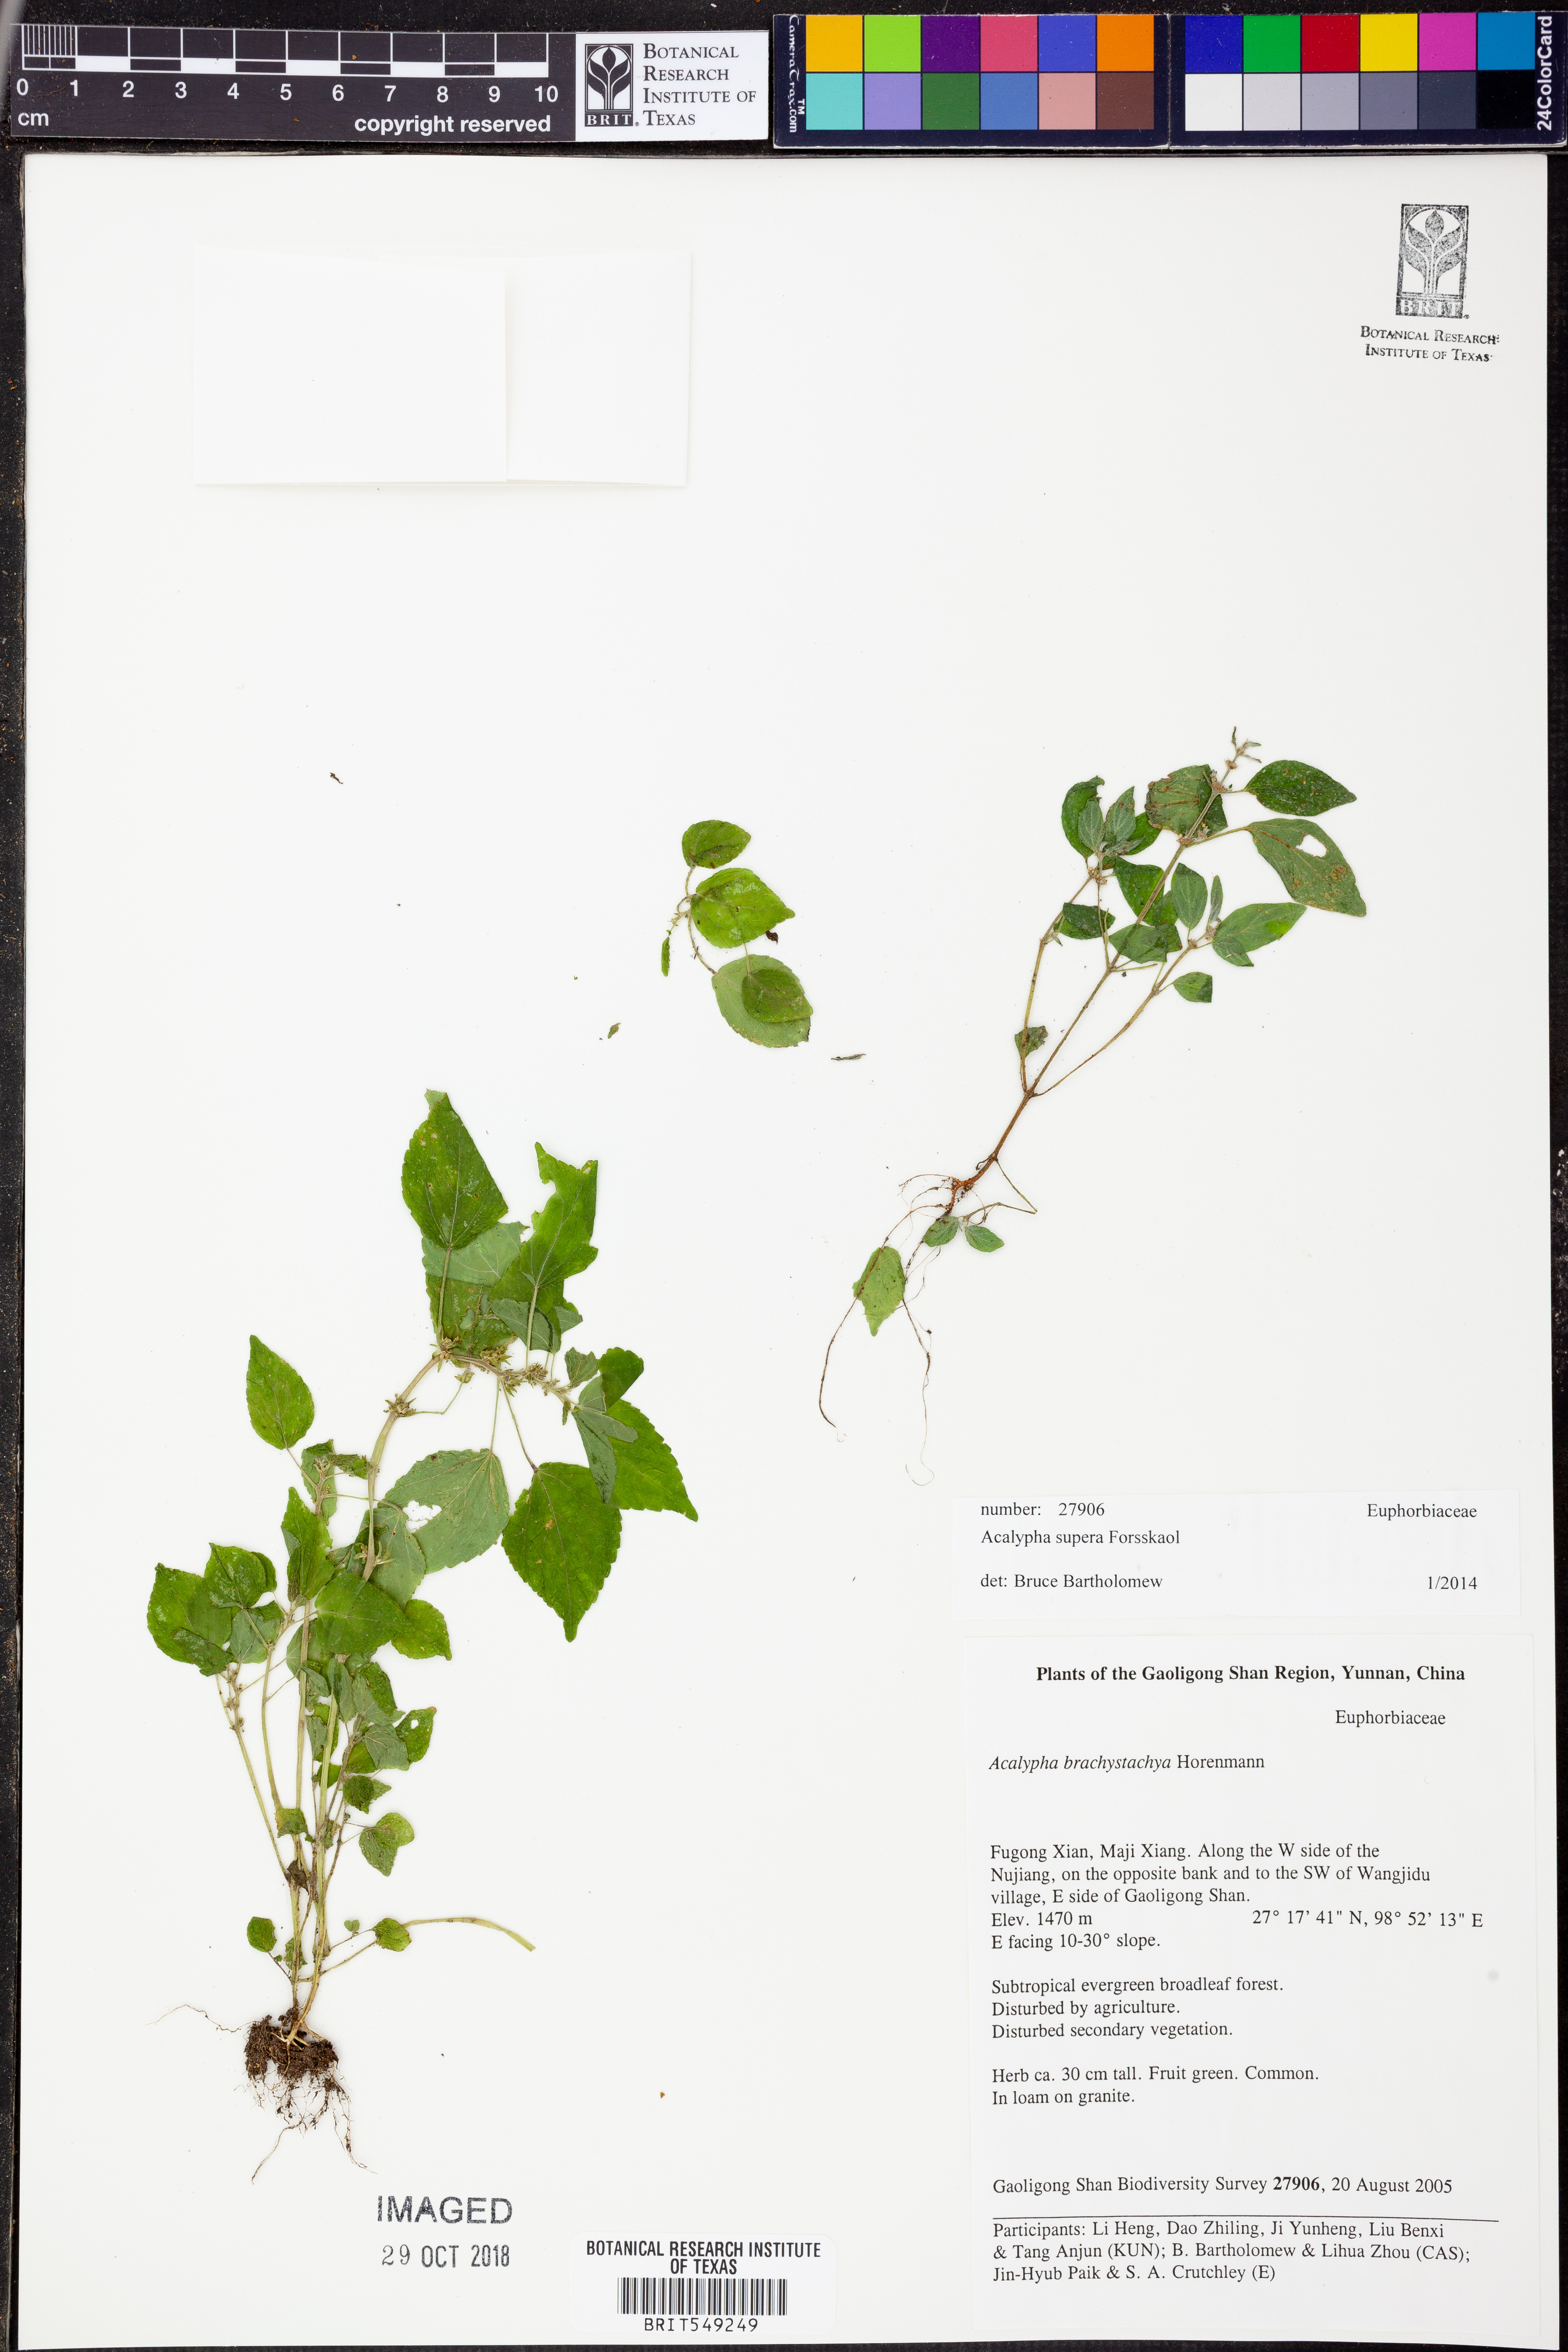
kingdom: Plantae
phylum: Tracheophyta
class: Magnoliopsida
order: Malpighiales
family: Euphorbiaceae
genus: Acalypha
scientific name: Acalypha brachystachya
